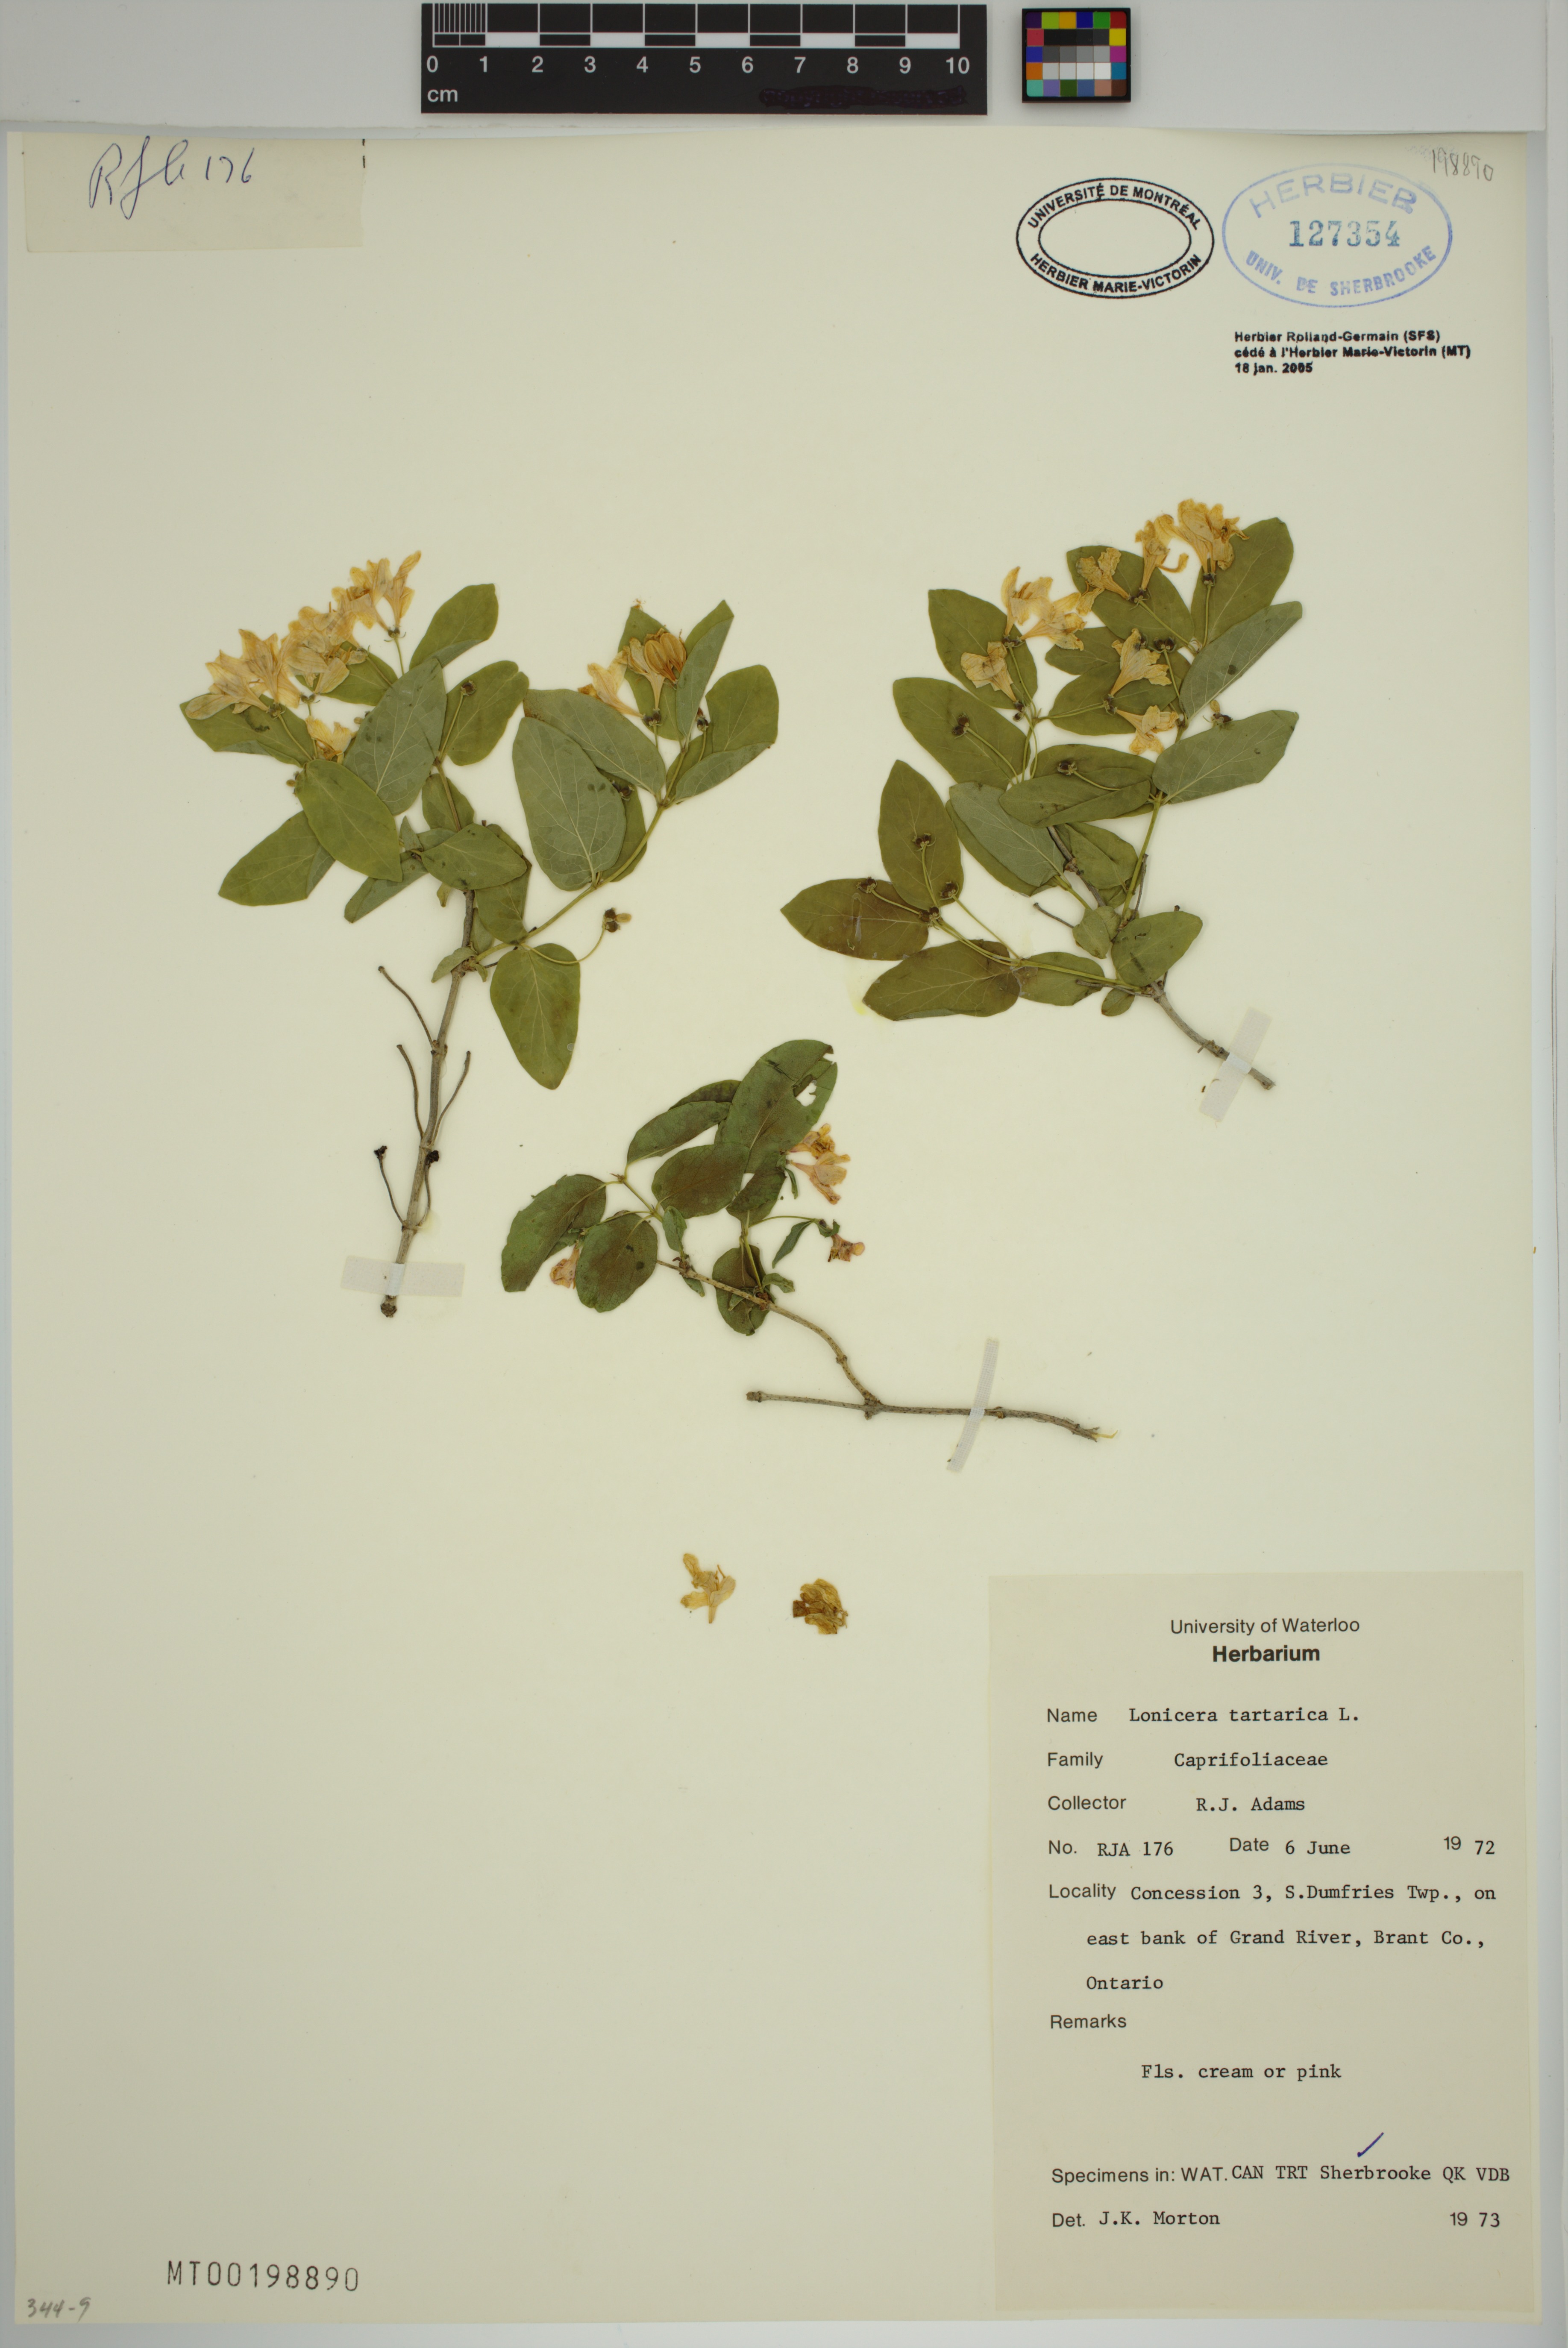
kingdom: Plantae
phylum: Tracheophyta
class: Magnoliopsida
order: Dipsacales
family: Caprifoliaceae
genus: Lonicera
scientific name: Lonicera tatarica
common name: Tatarian honeysuckle
